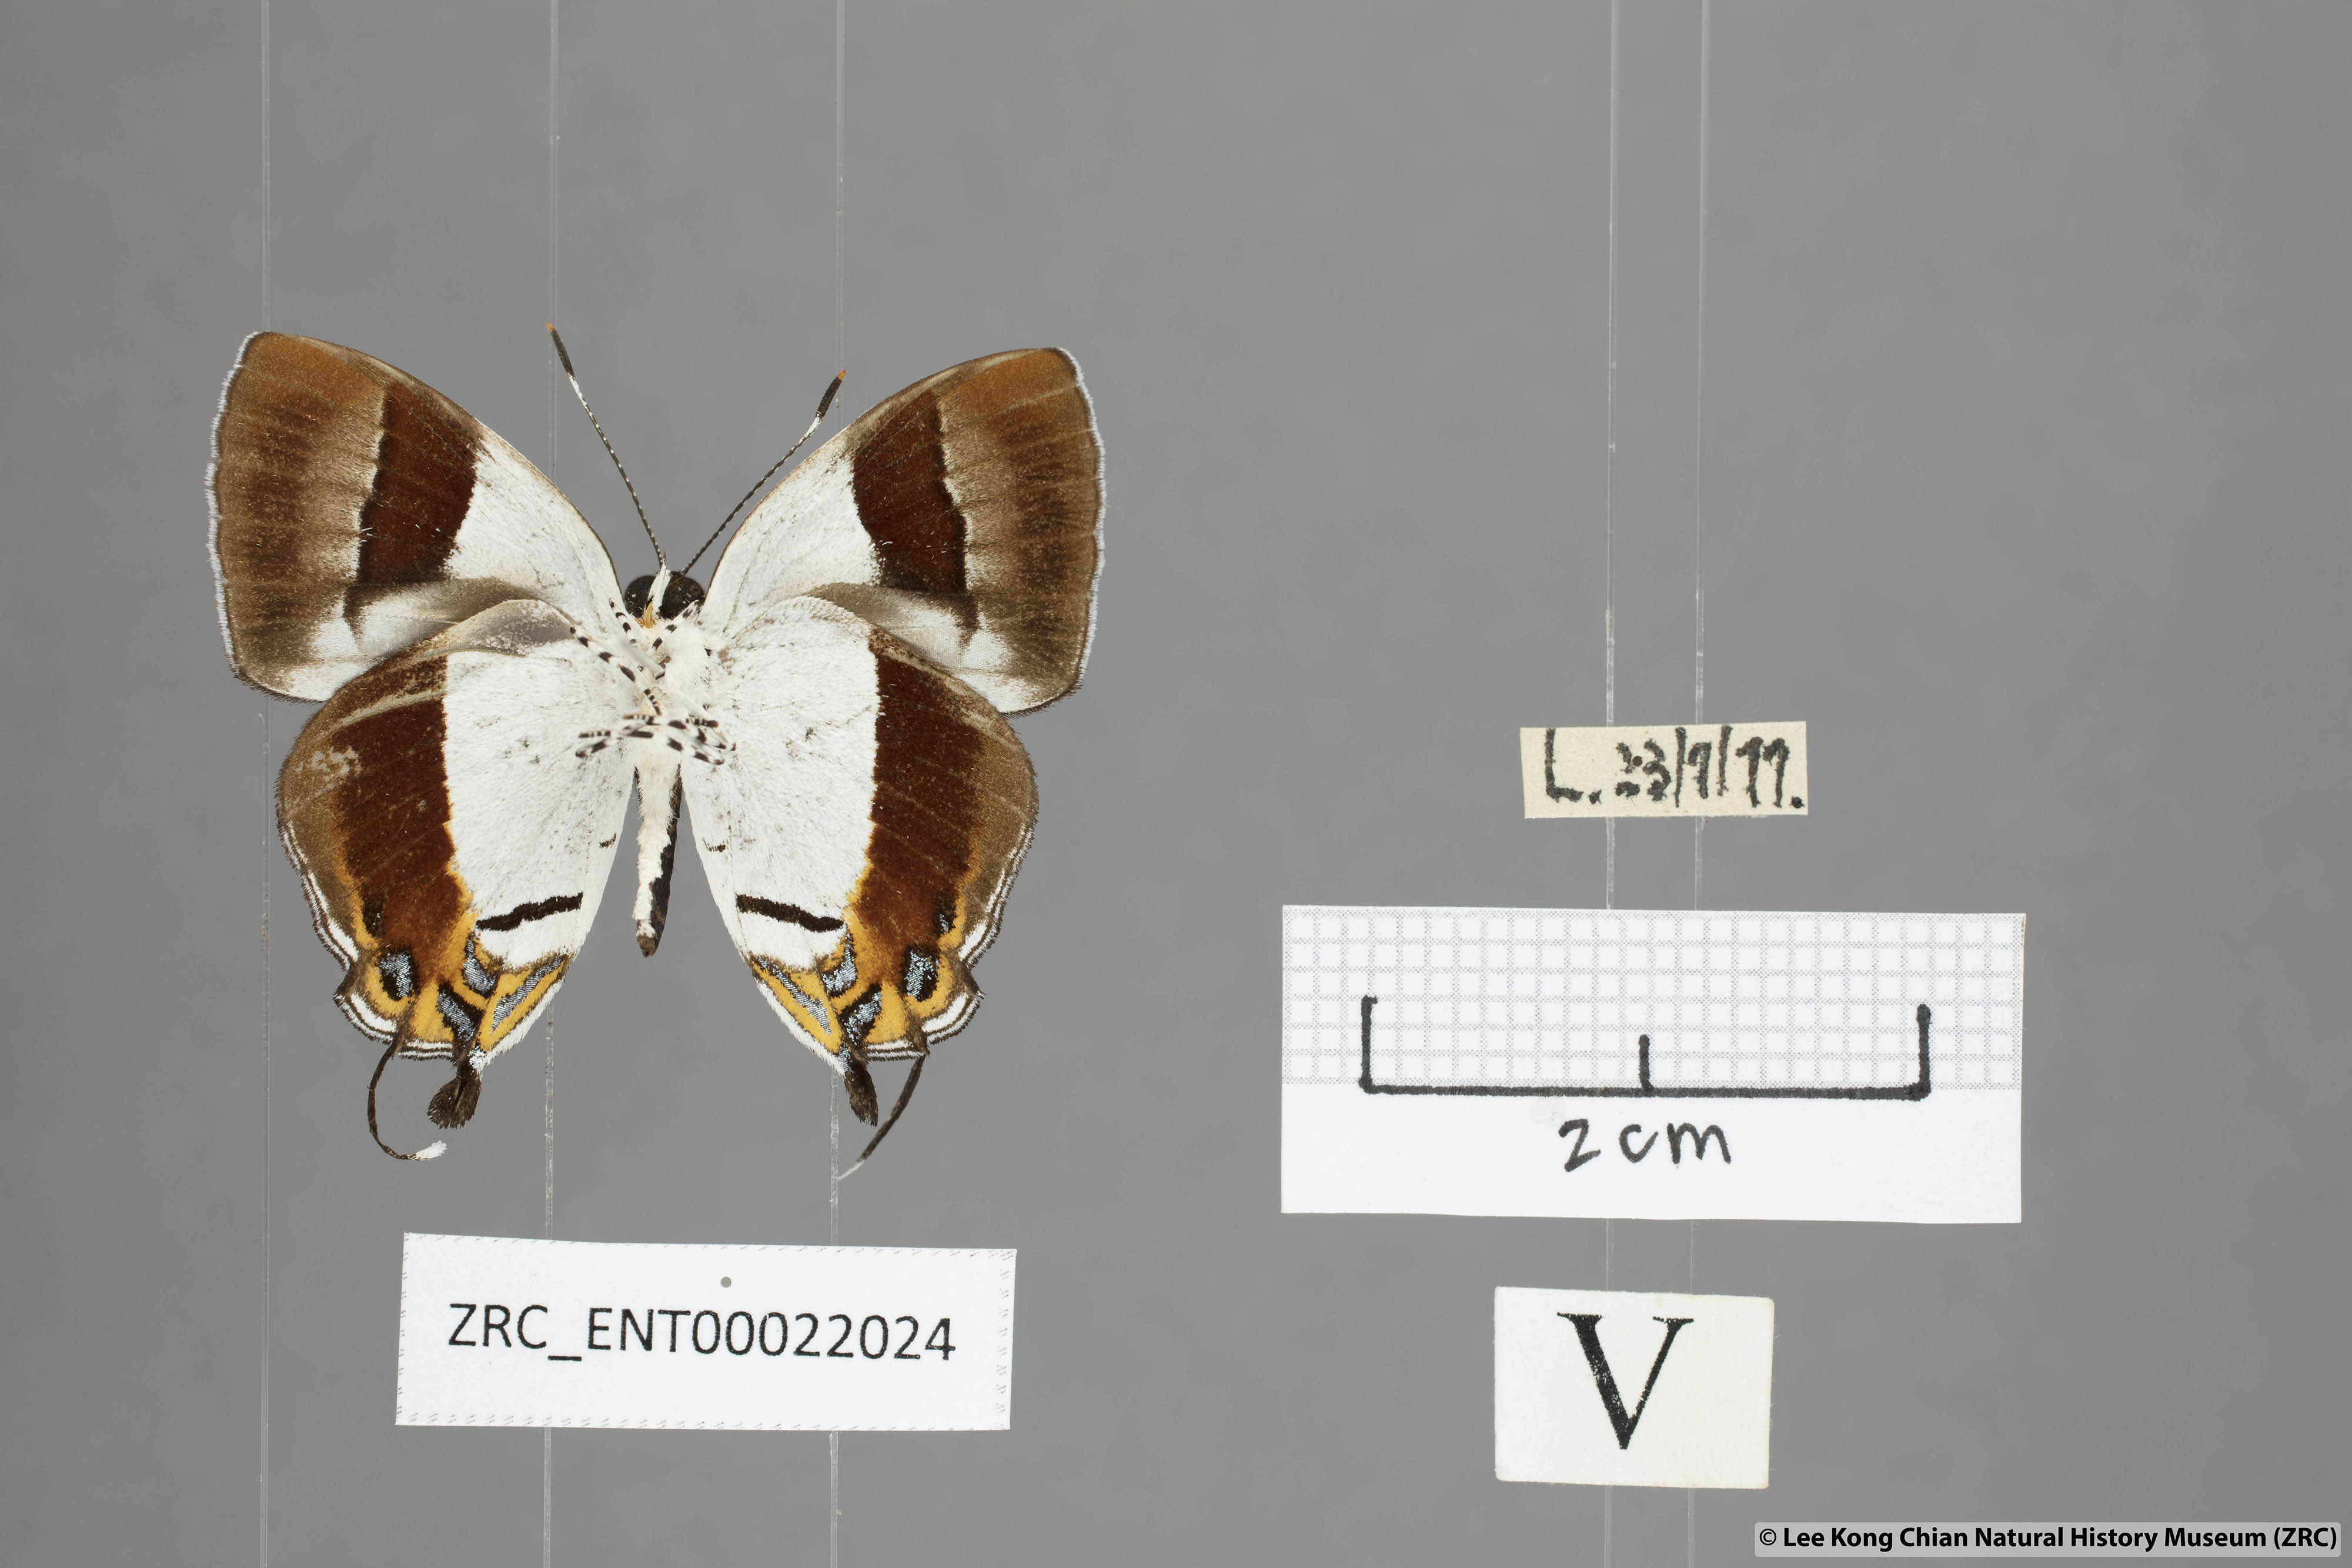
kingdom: Animalia
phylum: Arthropoda
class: Insecta
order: Lepidoptera
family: Lycaenidae
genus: Sithon
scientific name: Sithon nedymond
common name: Plush
